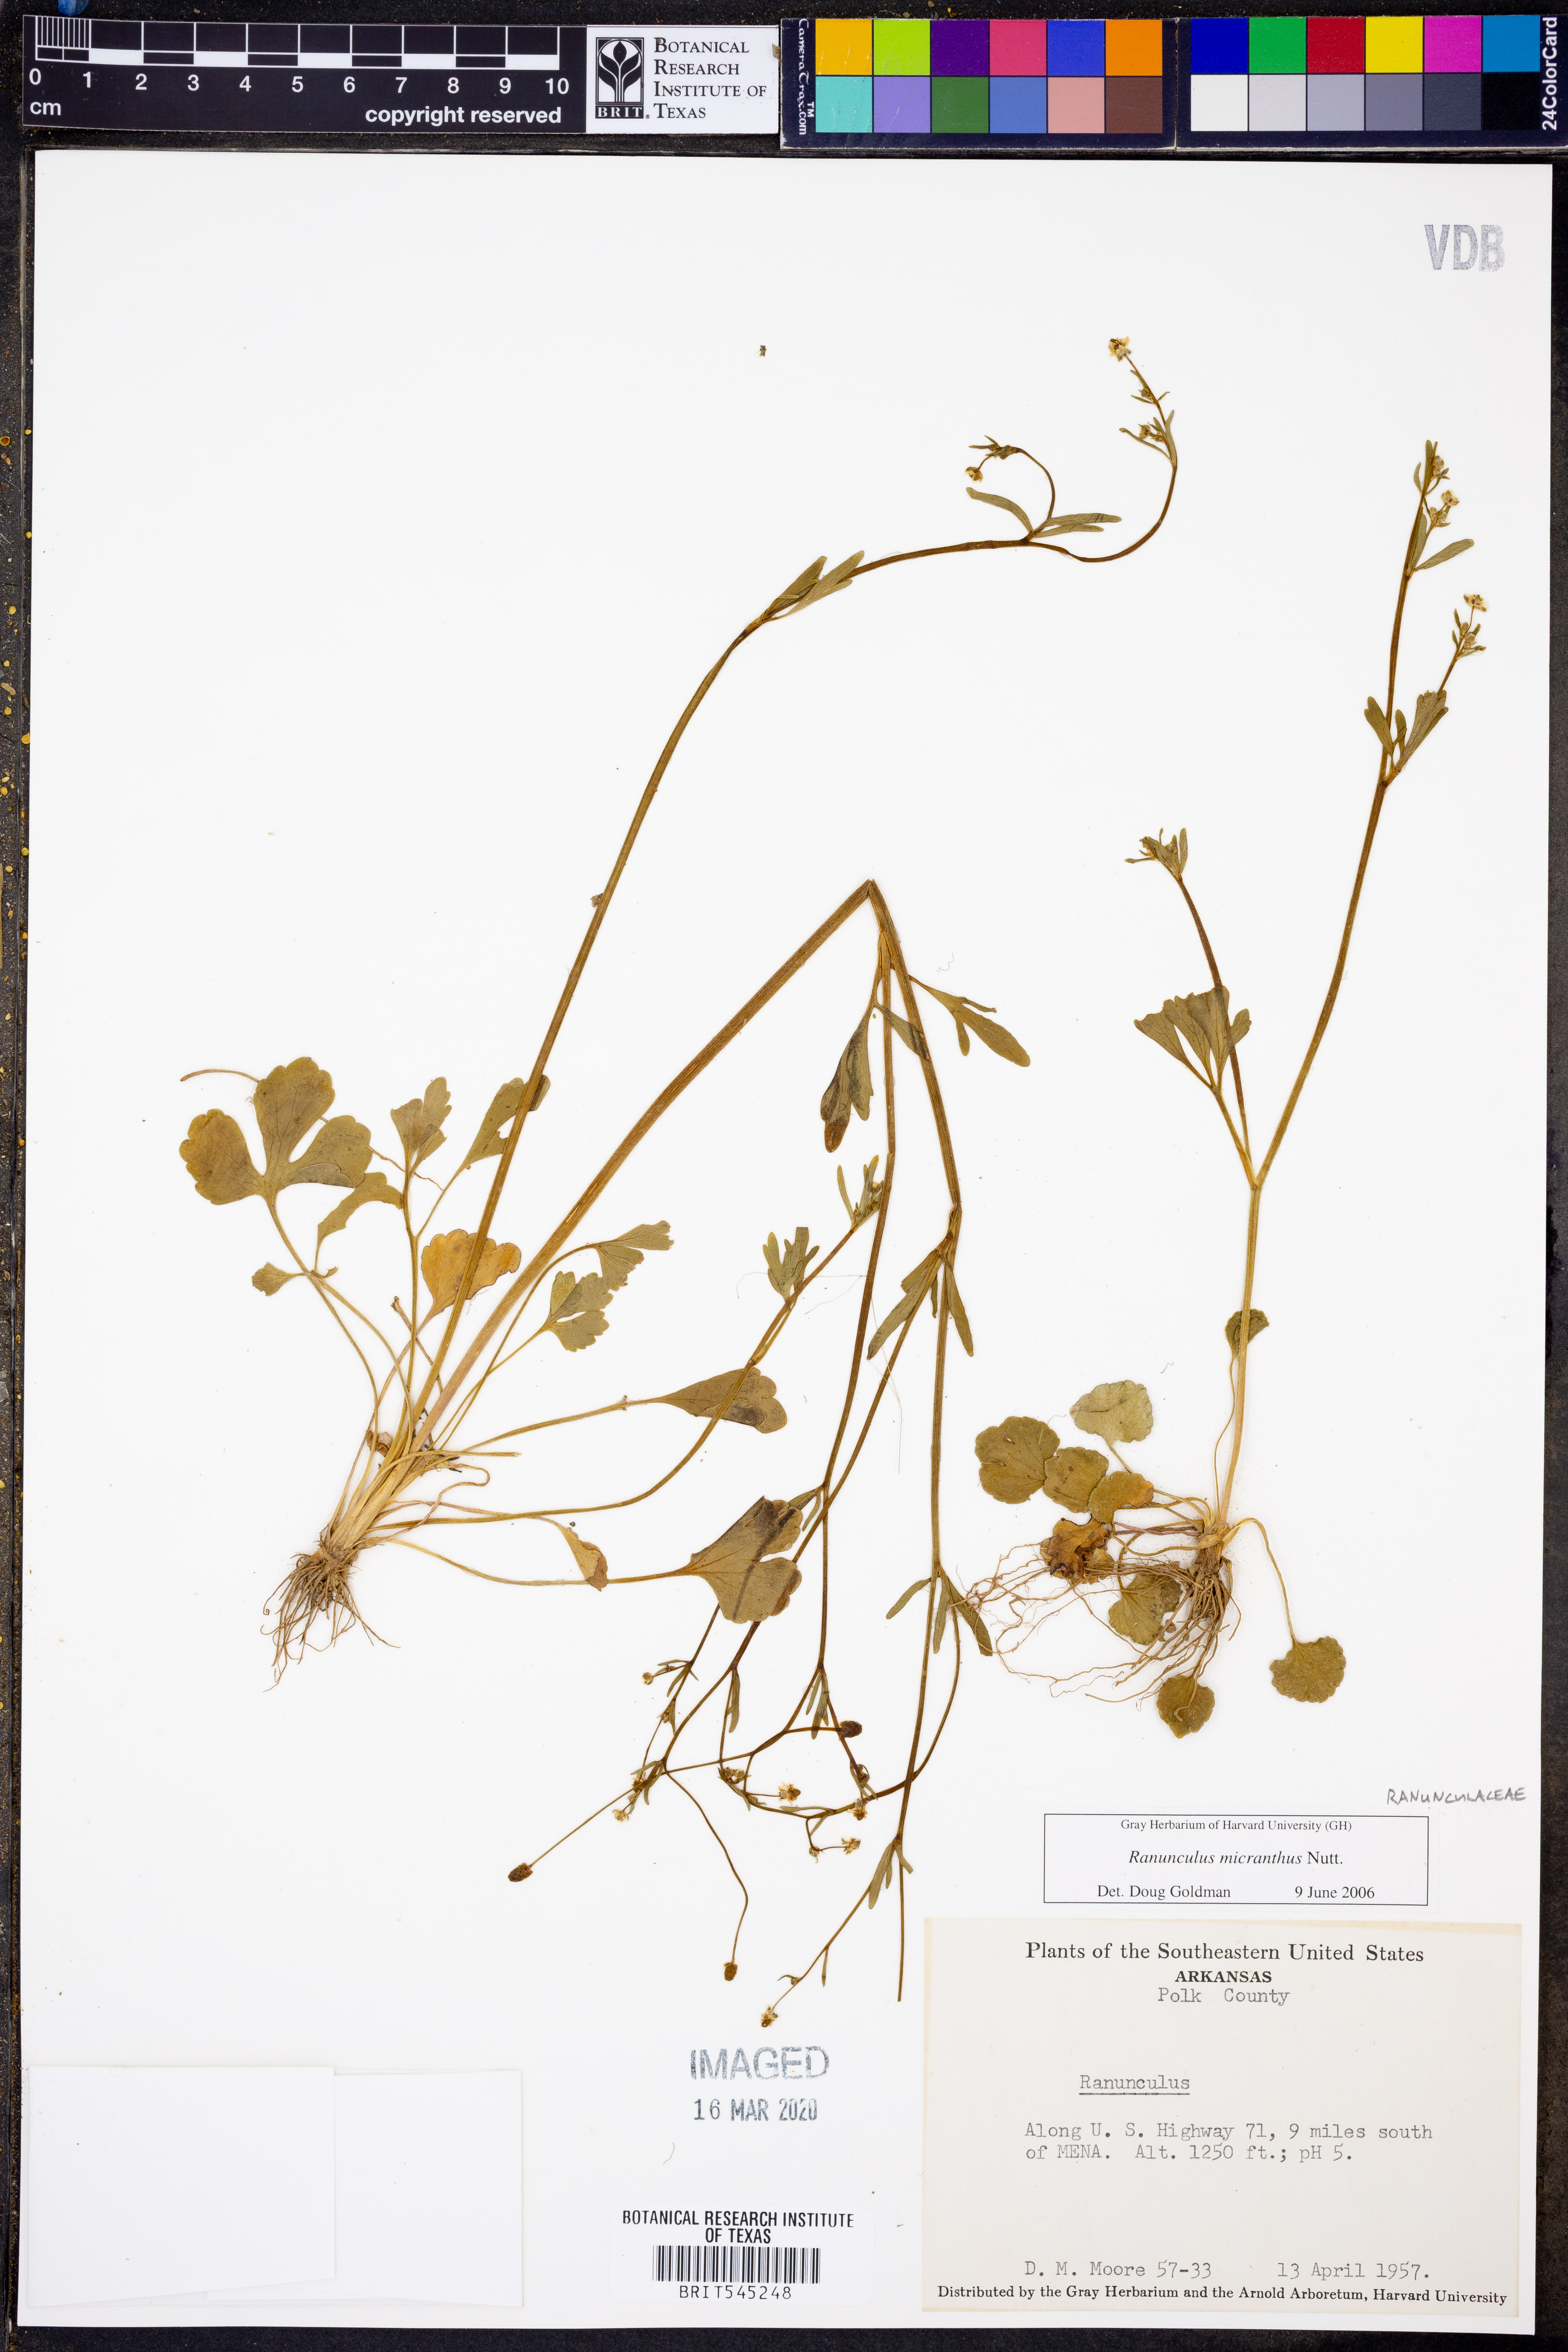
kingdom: Plantae
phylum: Tracheophyta
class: Magnoliopsida
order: Ranunculales
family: Ranunculaceae
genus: Ranunculus
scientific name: Ranunculus micranthus
